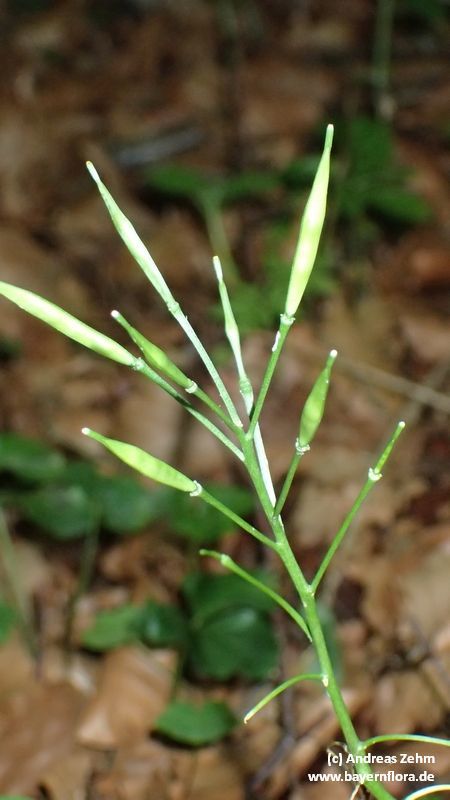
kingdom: Plantae
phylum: Tracheophyta
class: Magnoliopsida
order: Brassicales
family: Brassicaceae
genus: Cardamine
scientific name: Cardamine trifolia
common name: Trefoil cress
